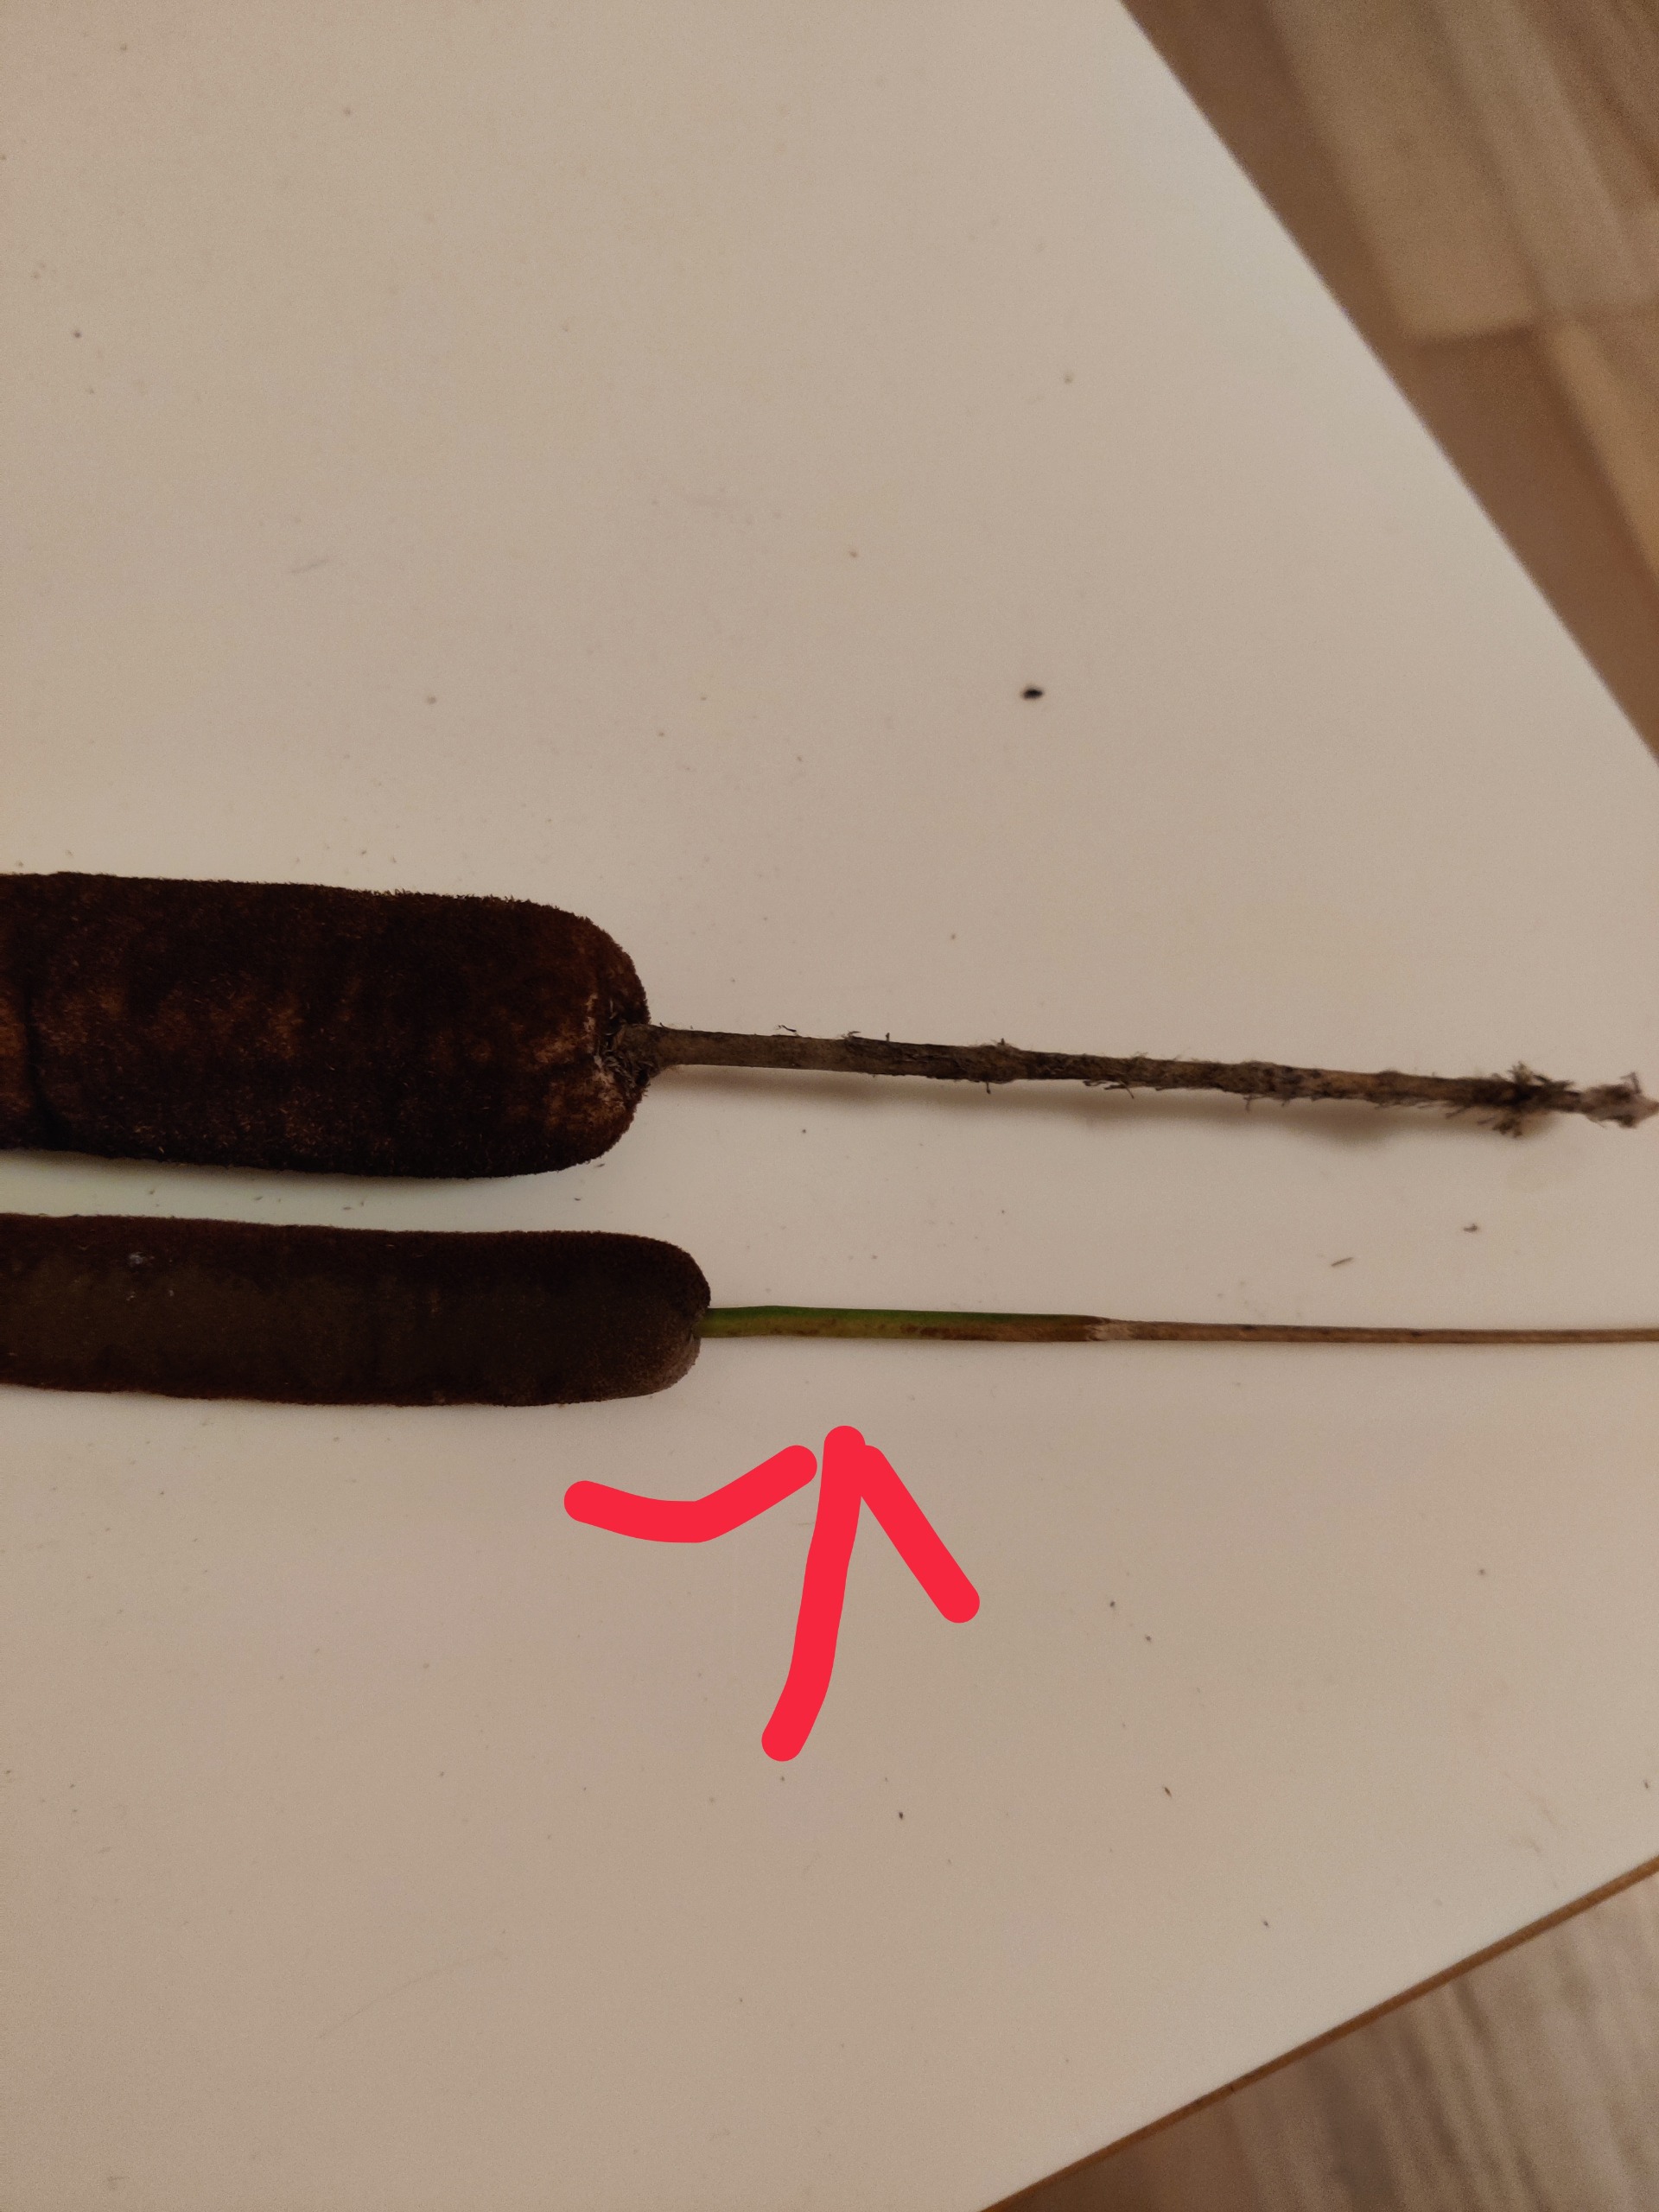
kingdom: Plantae
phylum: Tracheophyta
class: Liliopsida
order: Poales
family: Typhaceae
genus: Typha
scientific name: Typha angustifolia
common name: Smalbladet dunhammer
